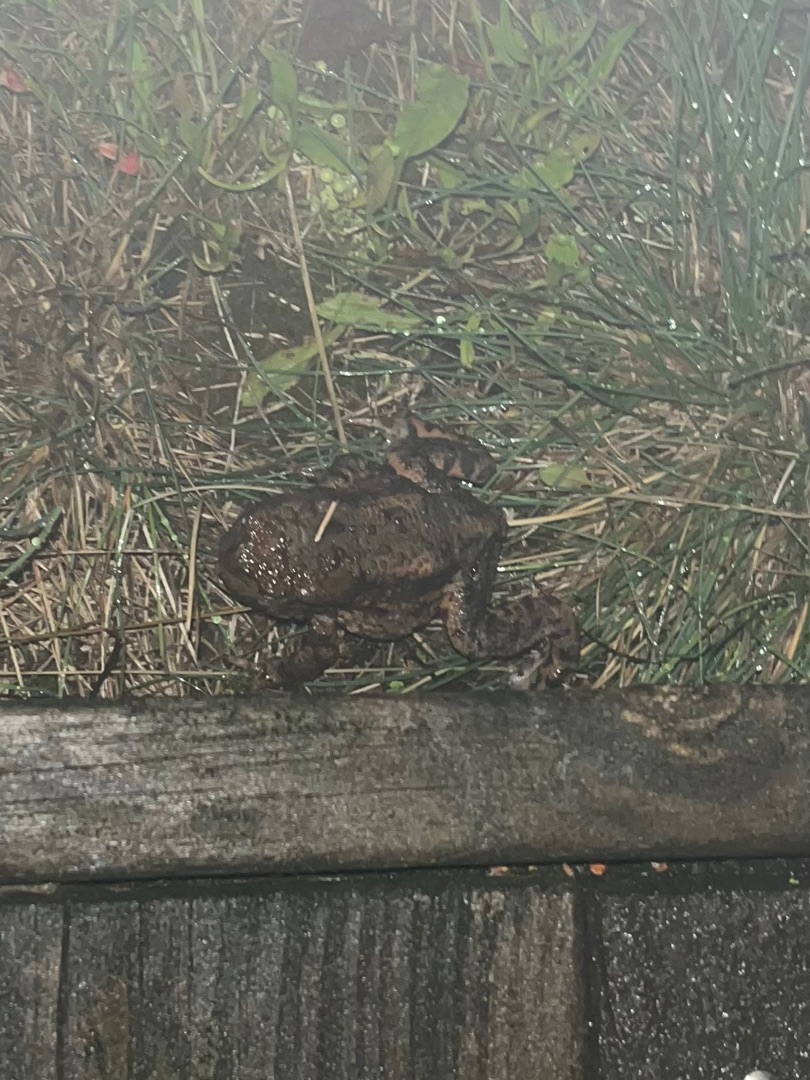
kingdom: Animalia
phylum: Chordata
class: Amphibia
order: Anura
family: Bufonidae
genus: Bufo
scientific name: Bufo bufo
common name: Skrubtudse
